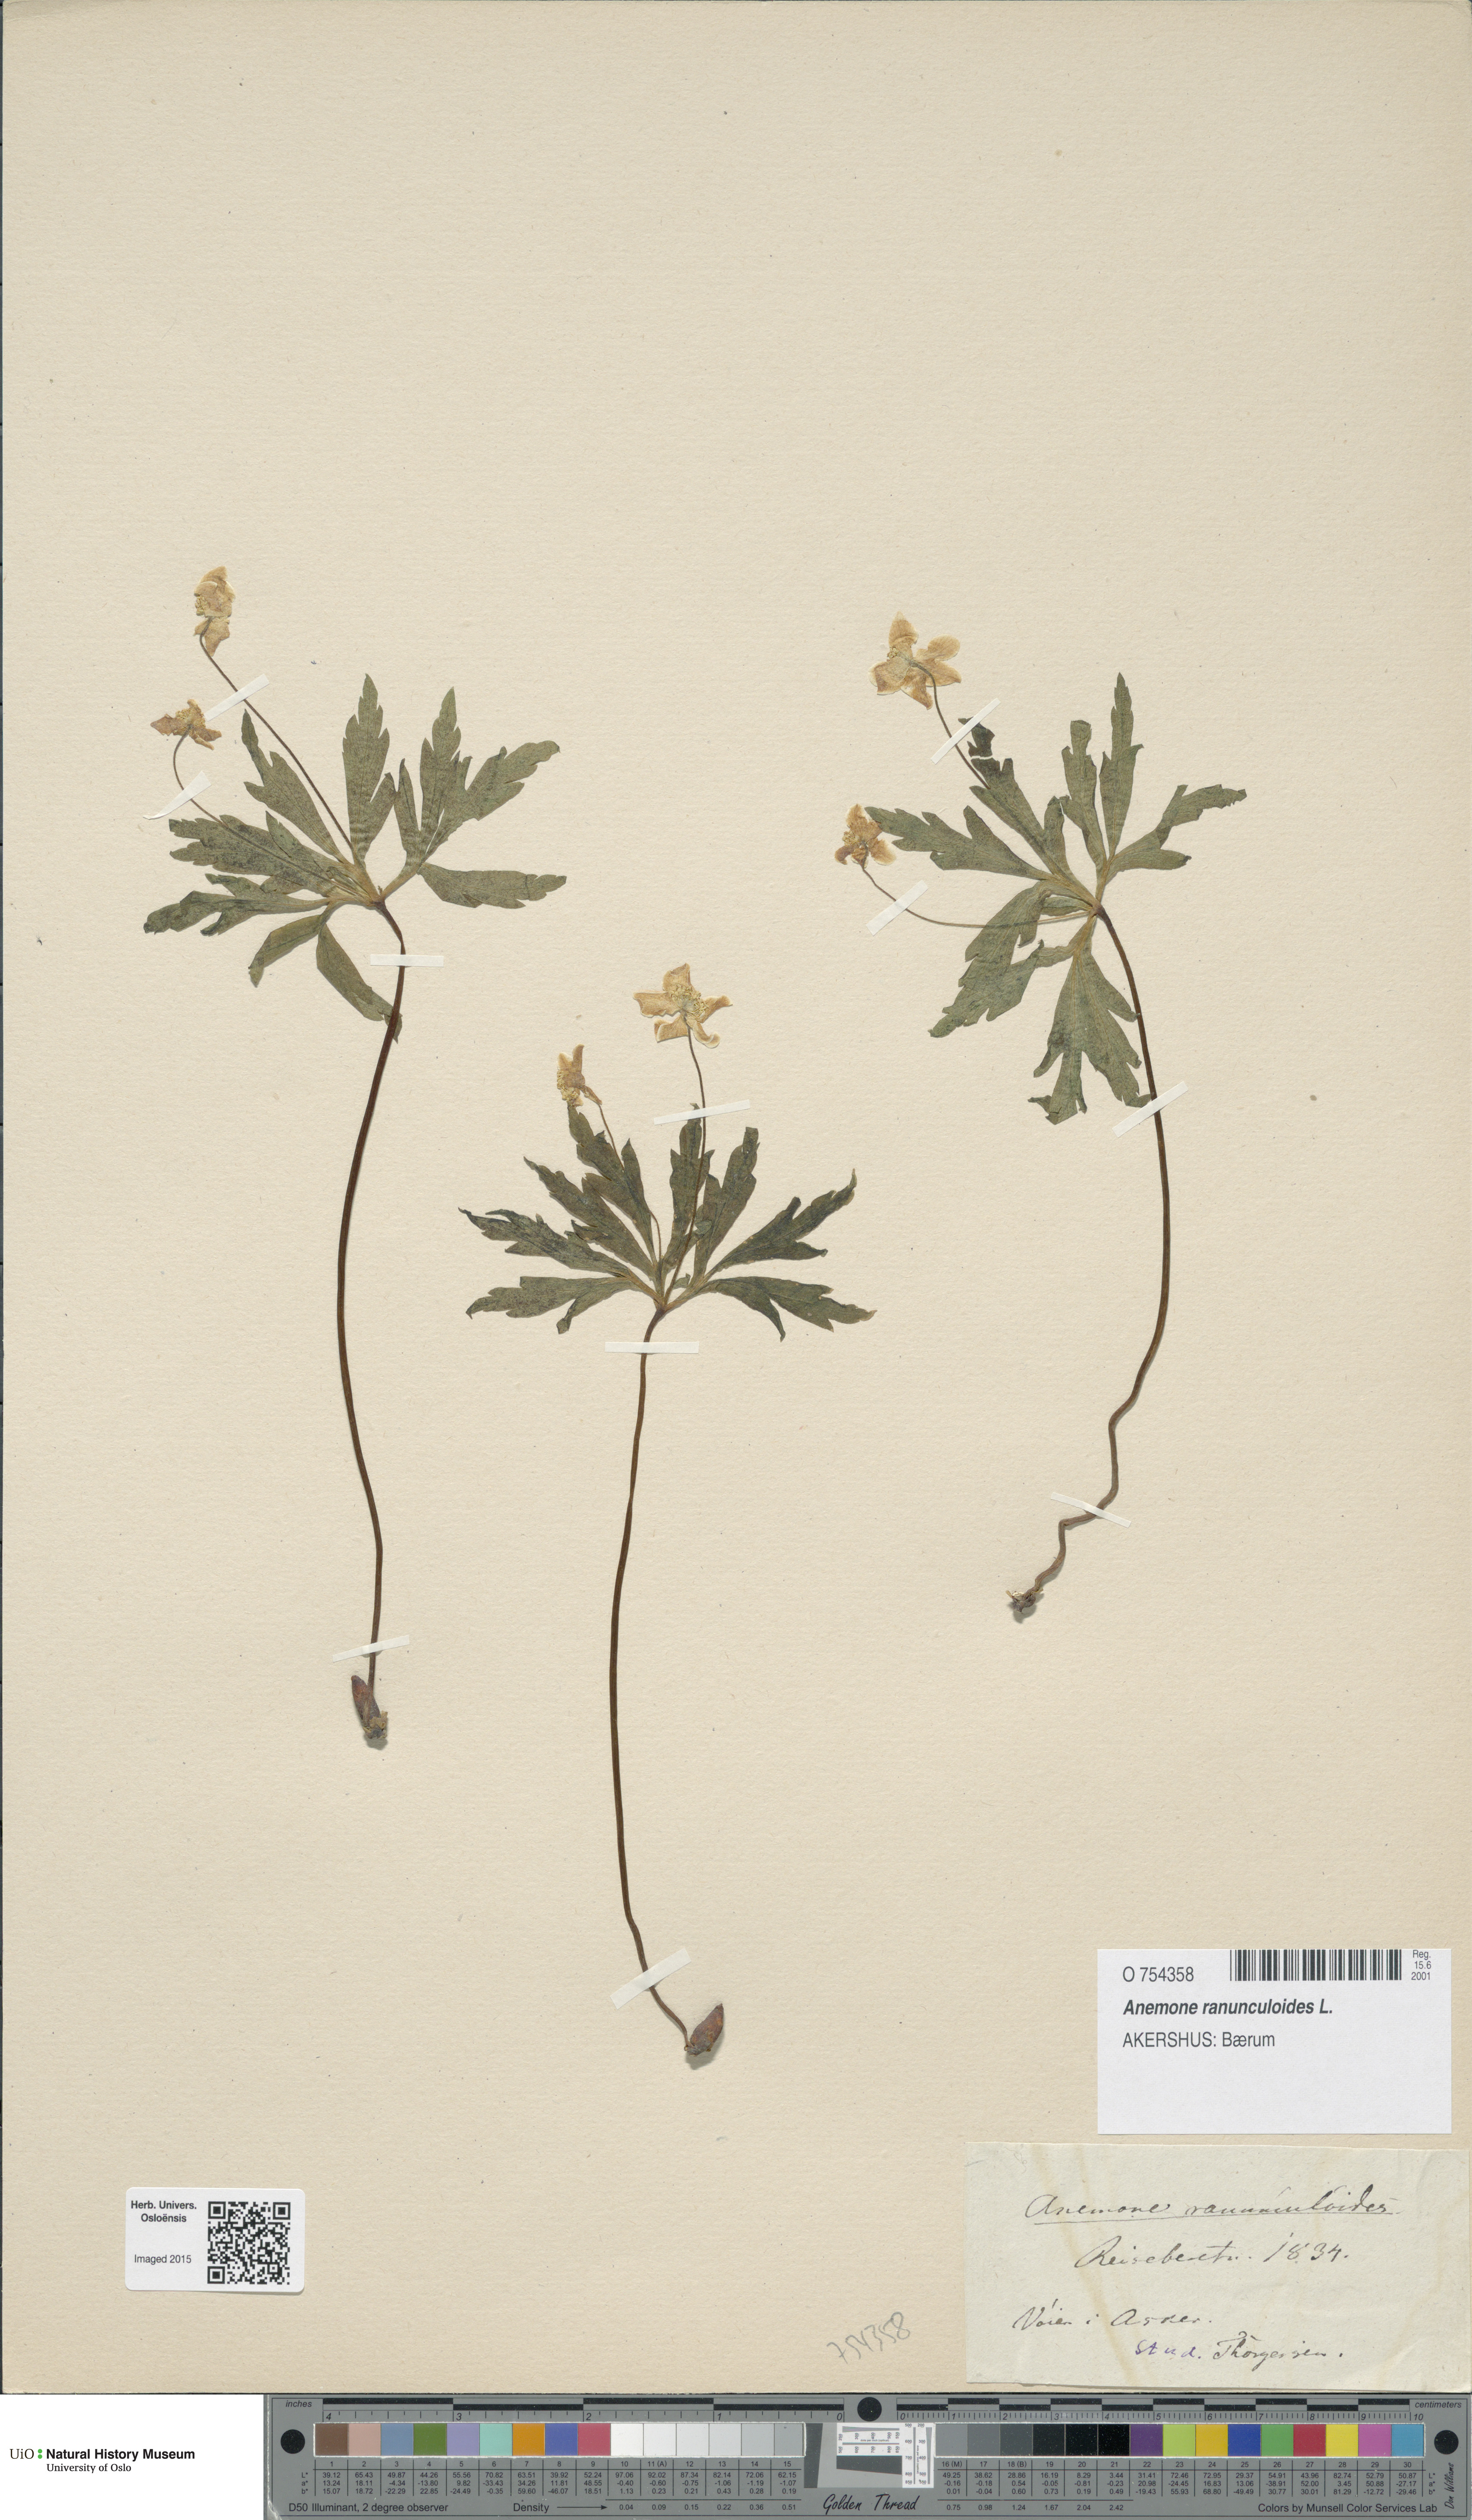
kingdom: Plantae
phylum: Tracheophyta
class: Magnoliopsida
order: Ranunculales
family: Ranunculaceae
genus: Anemone
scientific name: Anemone ranunculoides
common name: Yellow anemone
